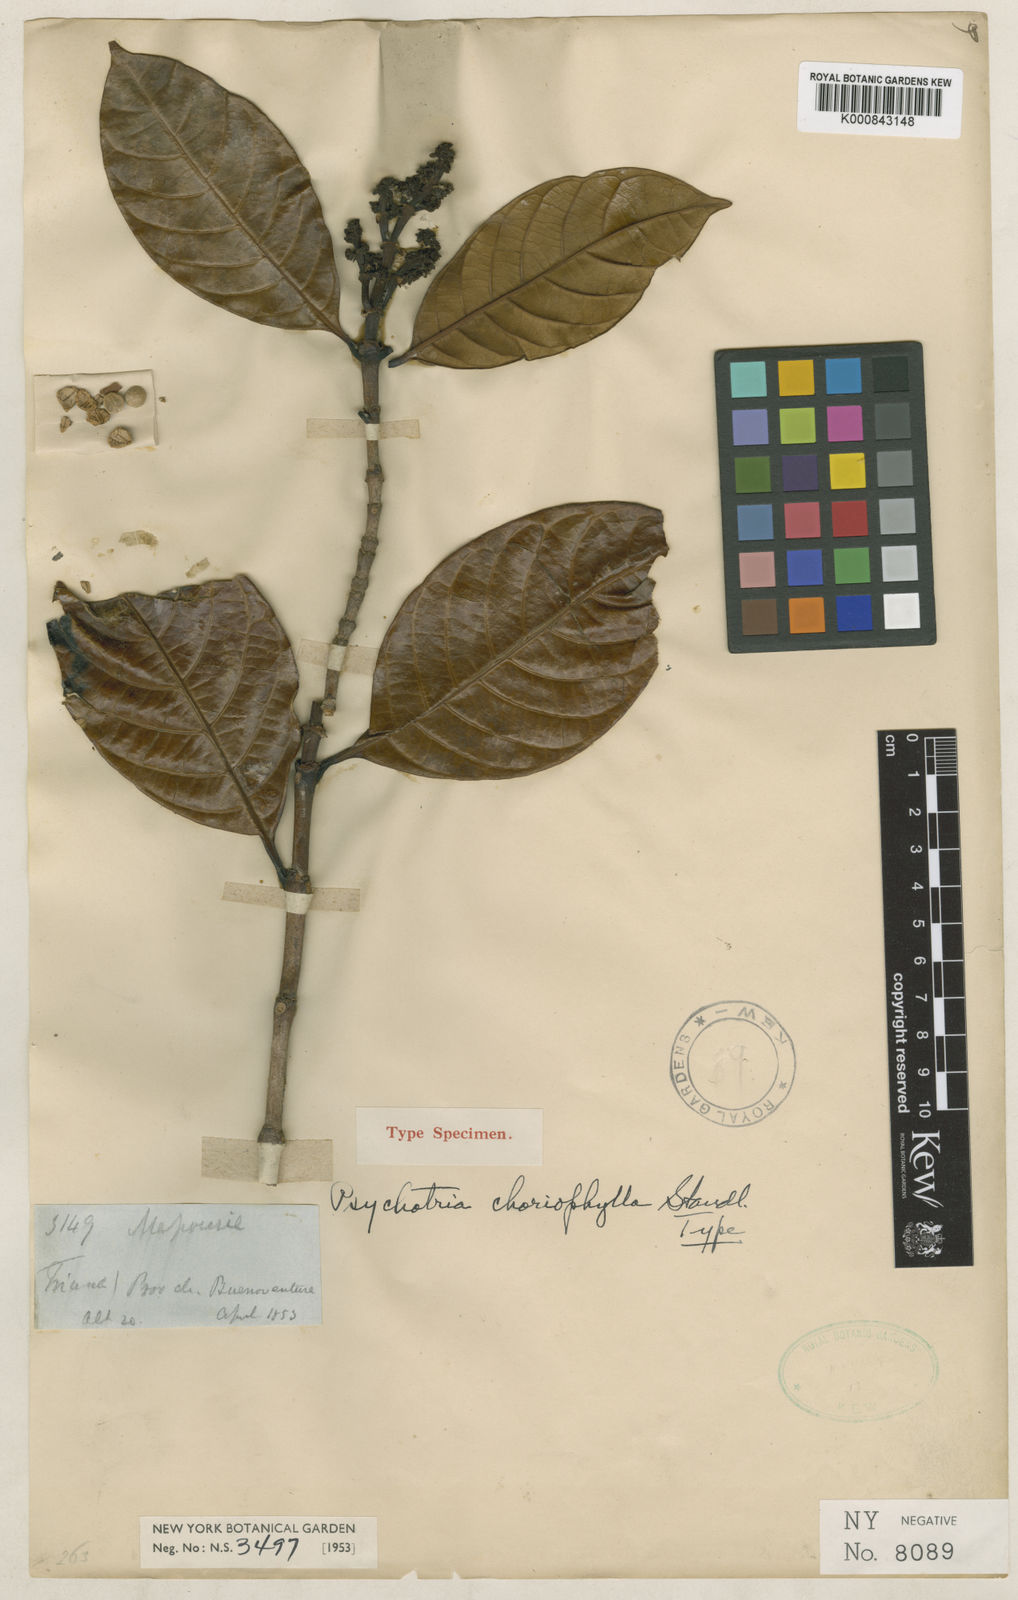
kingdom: Plantae
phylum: Tracheophyta
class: Magnoliopsida
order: Gentianales
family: Rubiaceae
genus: Rudgea
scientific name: Rudgea colombiana
